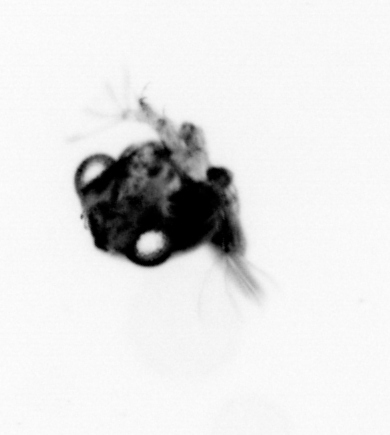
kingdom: Animalia
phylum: Arthropoda
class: Malacostraca
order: Decapoda
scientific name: Decapoda
